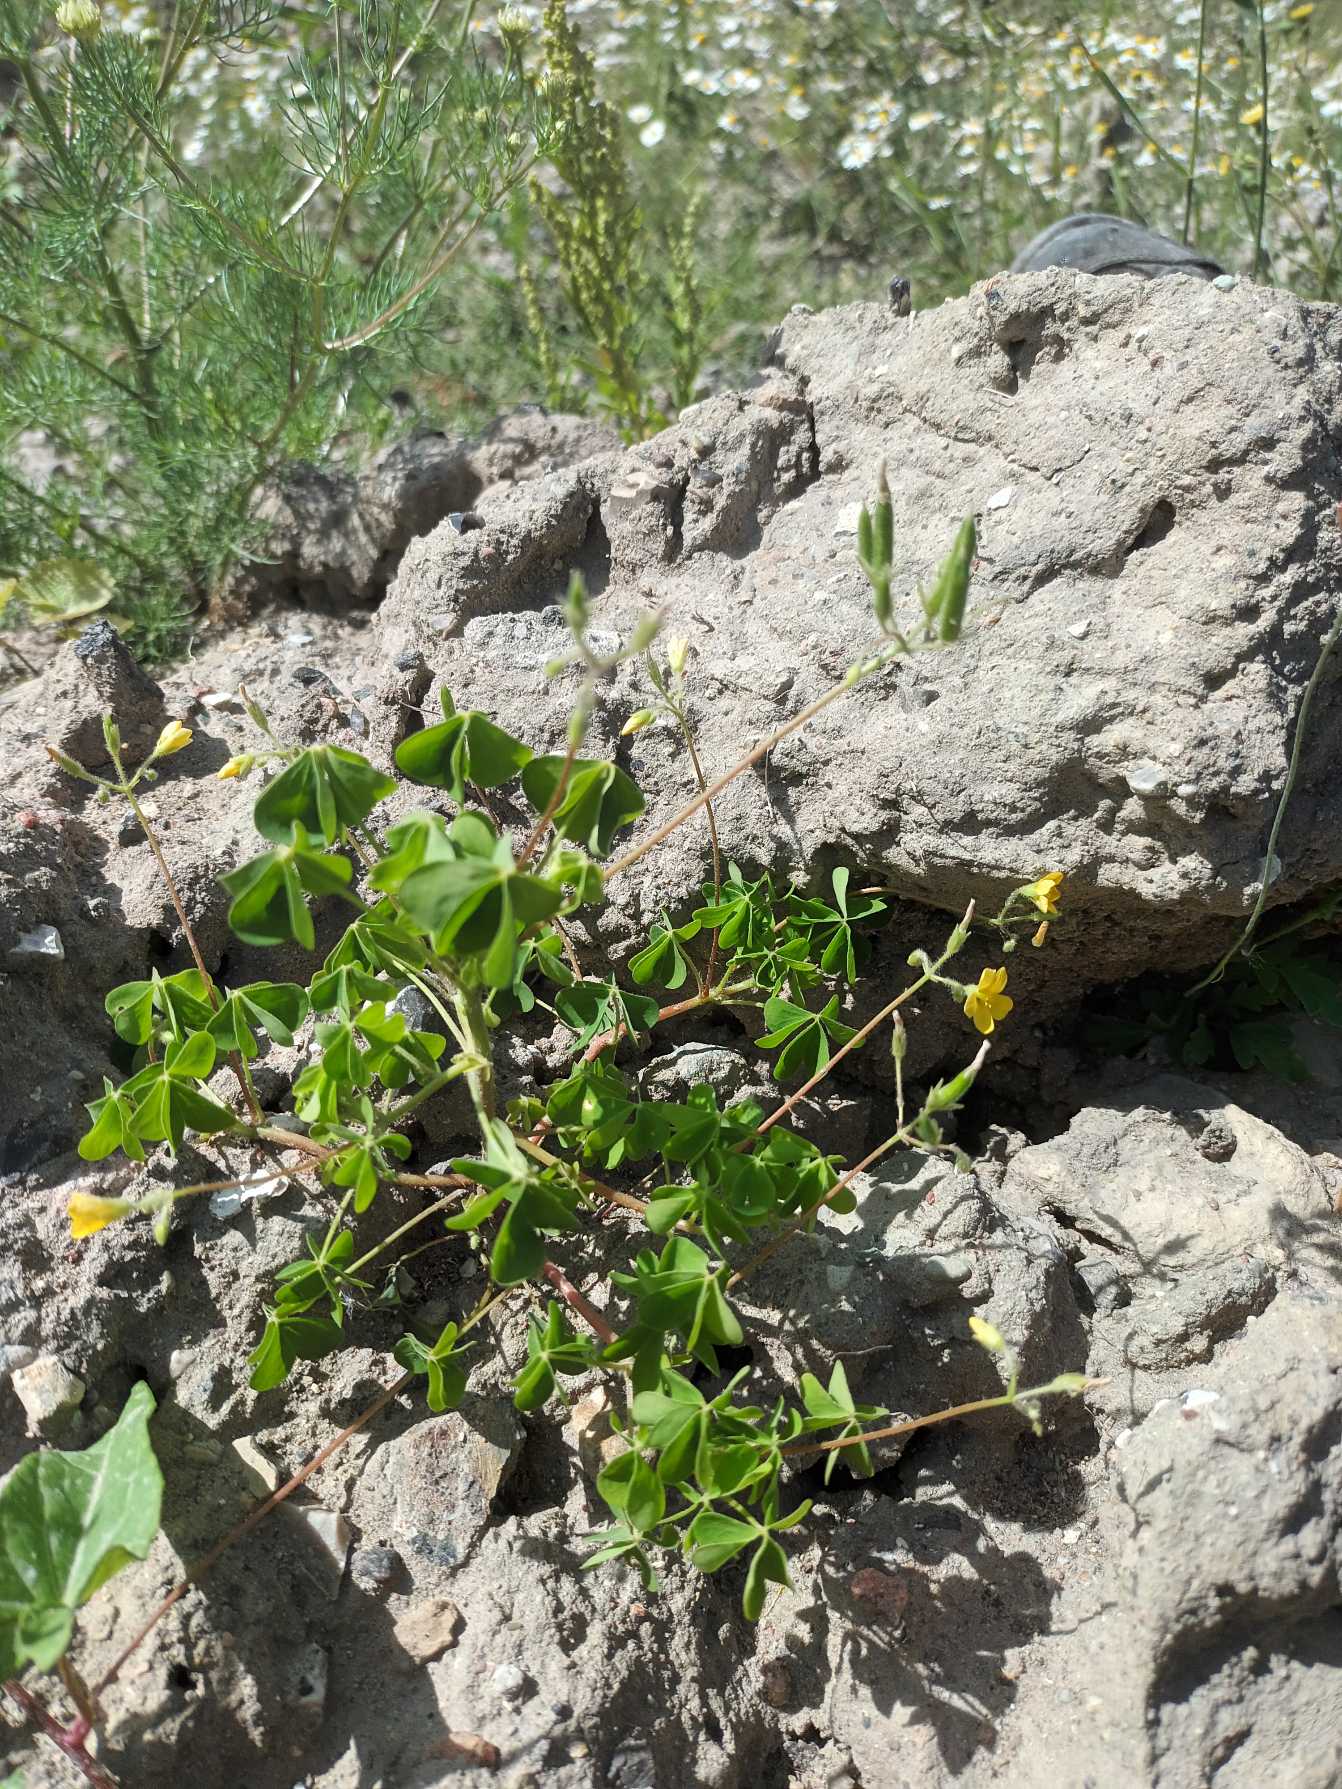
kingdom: Plantae
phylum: Tracheophyta
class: Magnoliopsida
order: Oxalidales
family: Oxalidaceae
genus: Oxalis
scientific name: Oxalis stricta
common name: Rank surkløver
